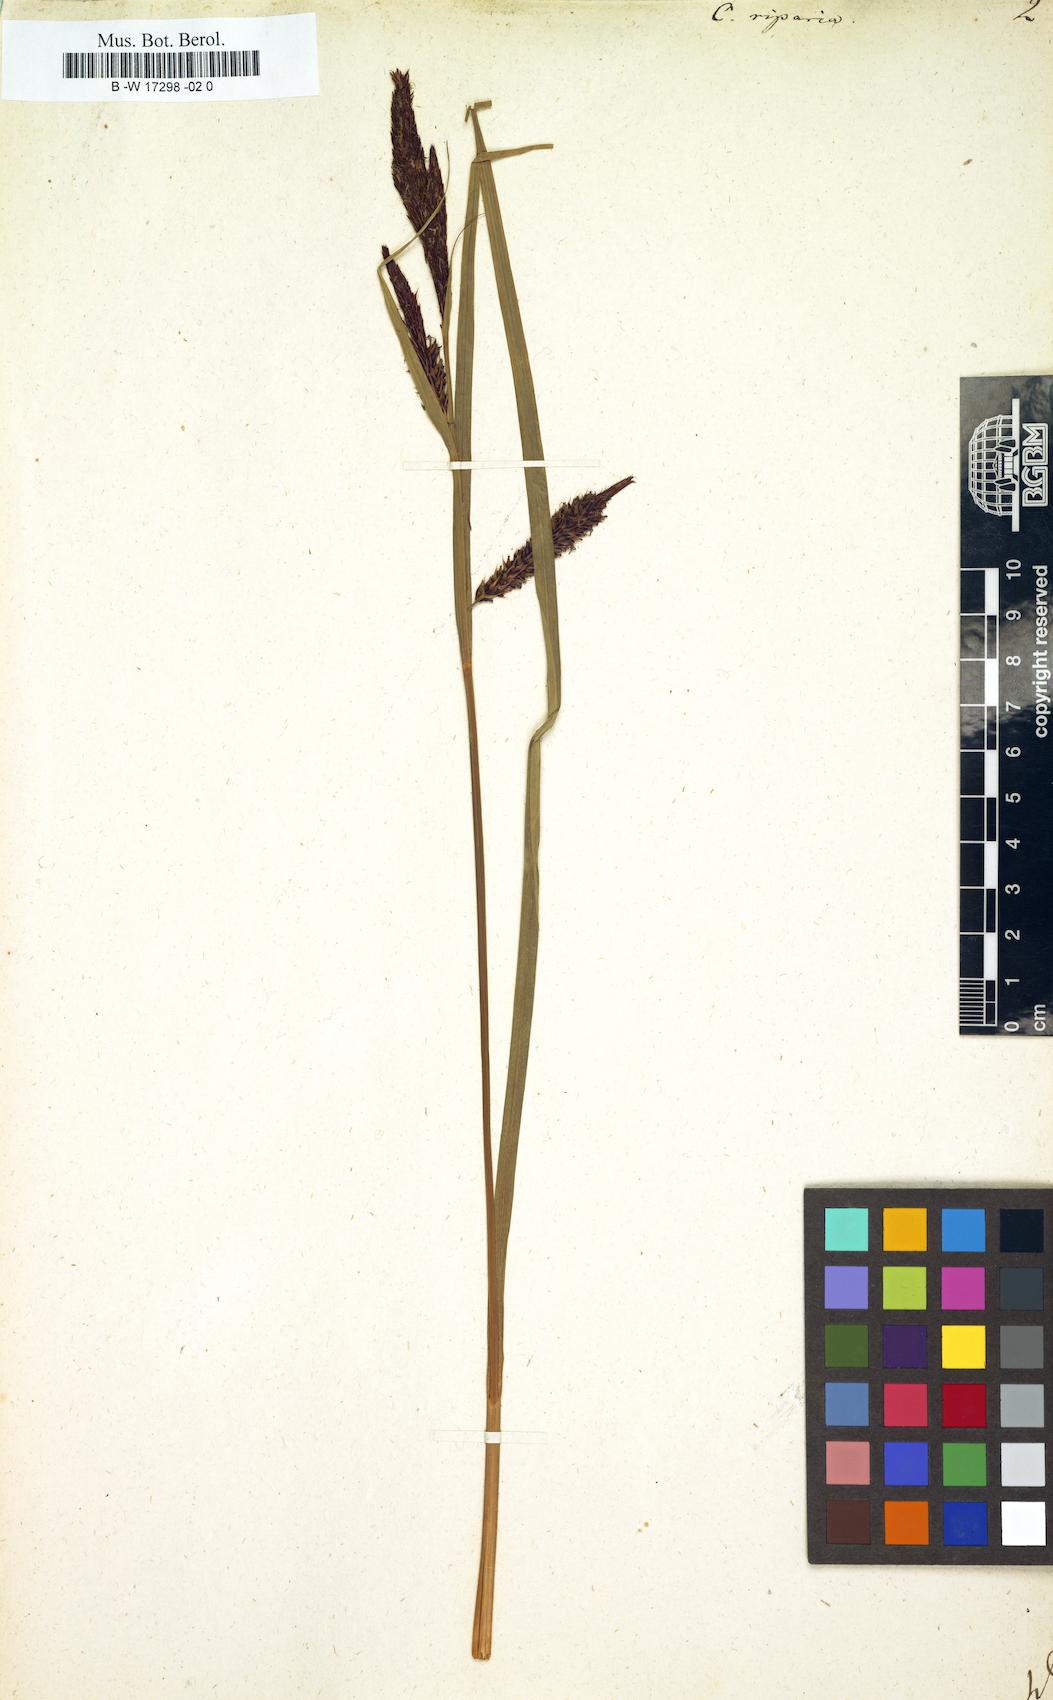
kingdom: Plantae
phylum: Tracheophyta
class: Liliopsida
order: Poales
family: Cyperaceae
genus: Carex
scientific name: Carex riparia
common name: Greater pond-sedge
